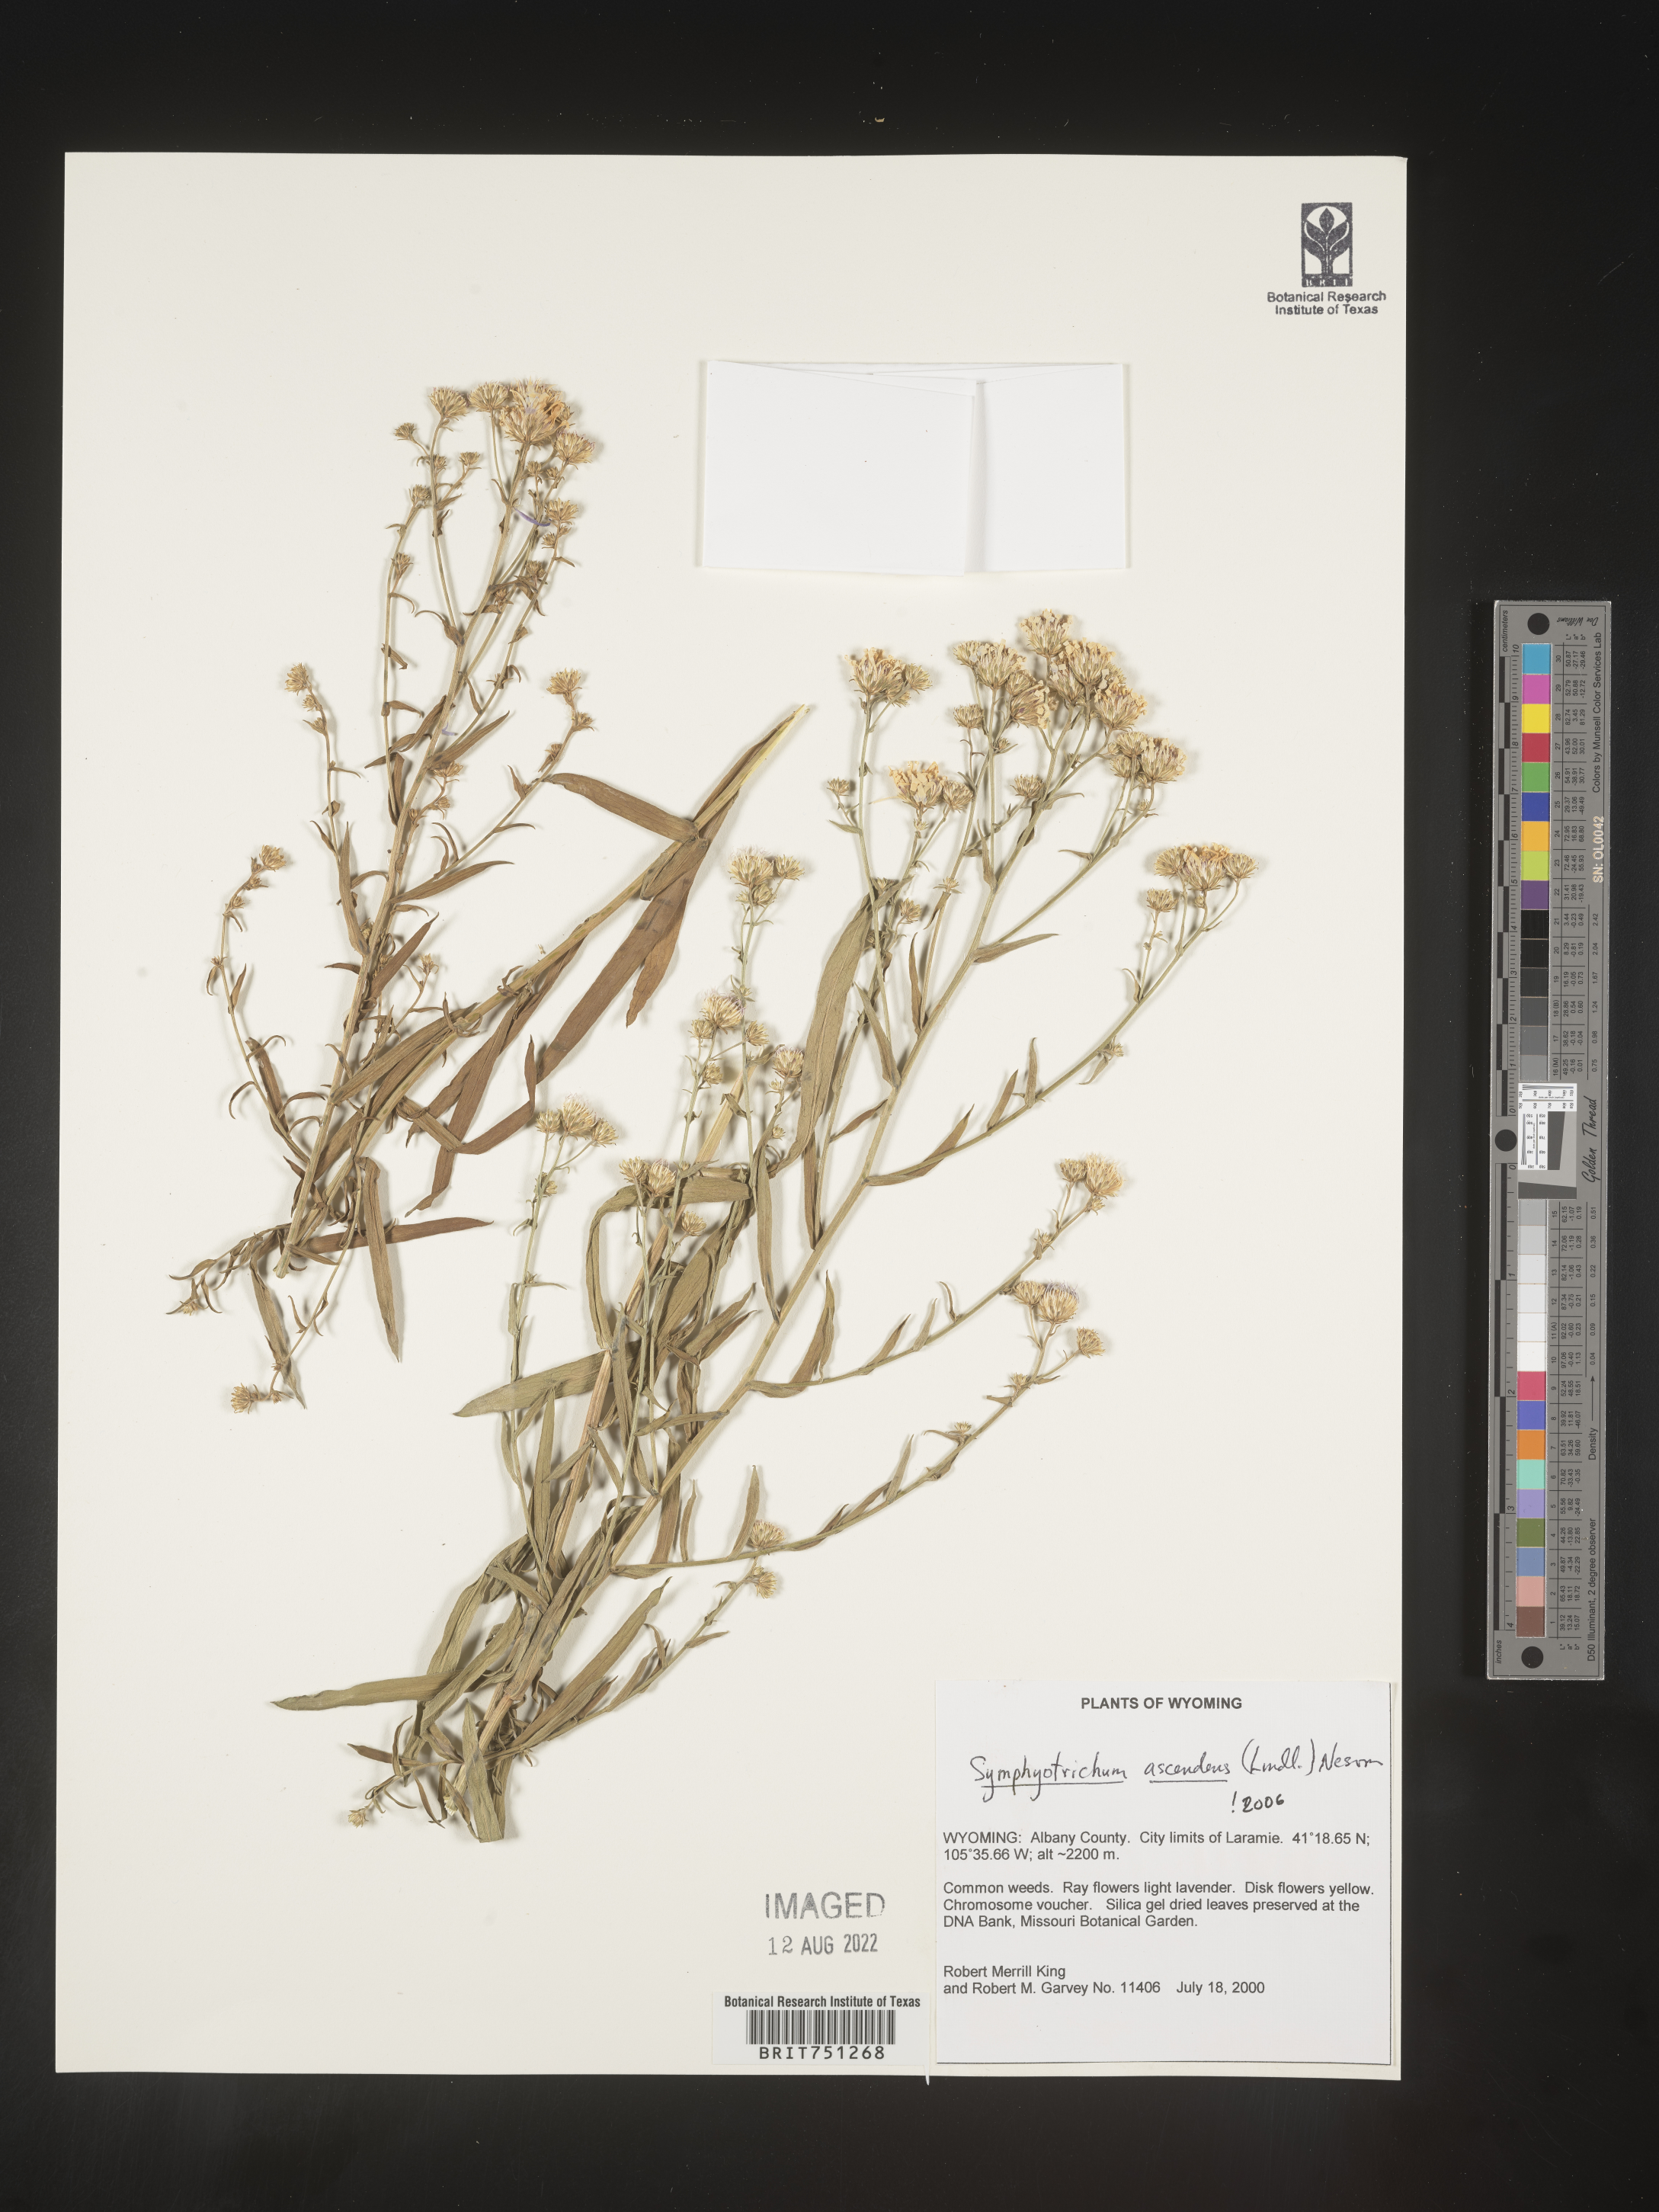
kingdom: Plantae
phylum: Tracheophyta
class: Magnoliopsida
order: Asterales
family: Asteraceae
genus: Symphyotrichum
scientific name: Symphyotrichum ascendens
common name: Intermountain aster
